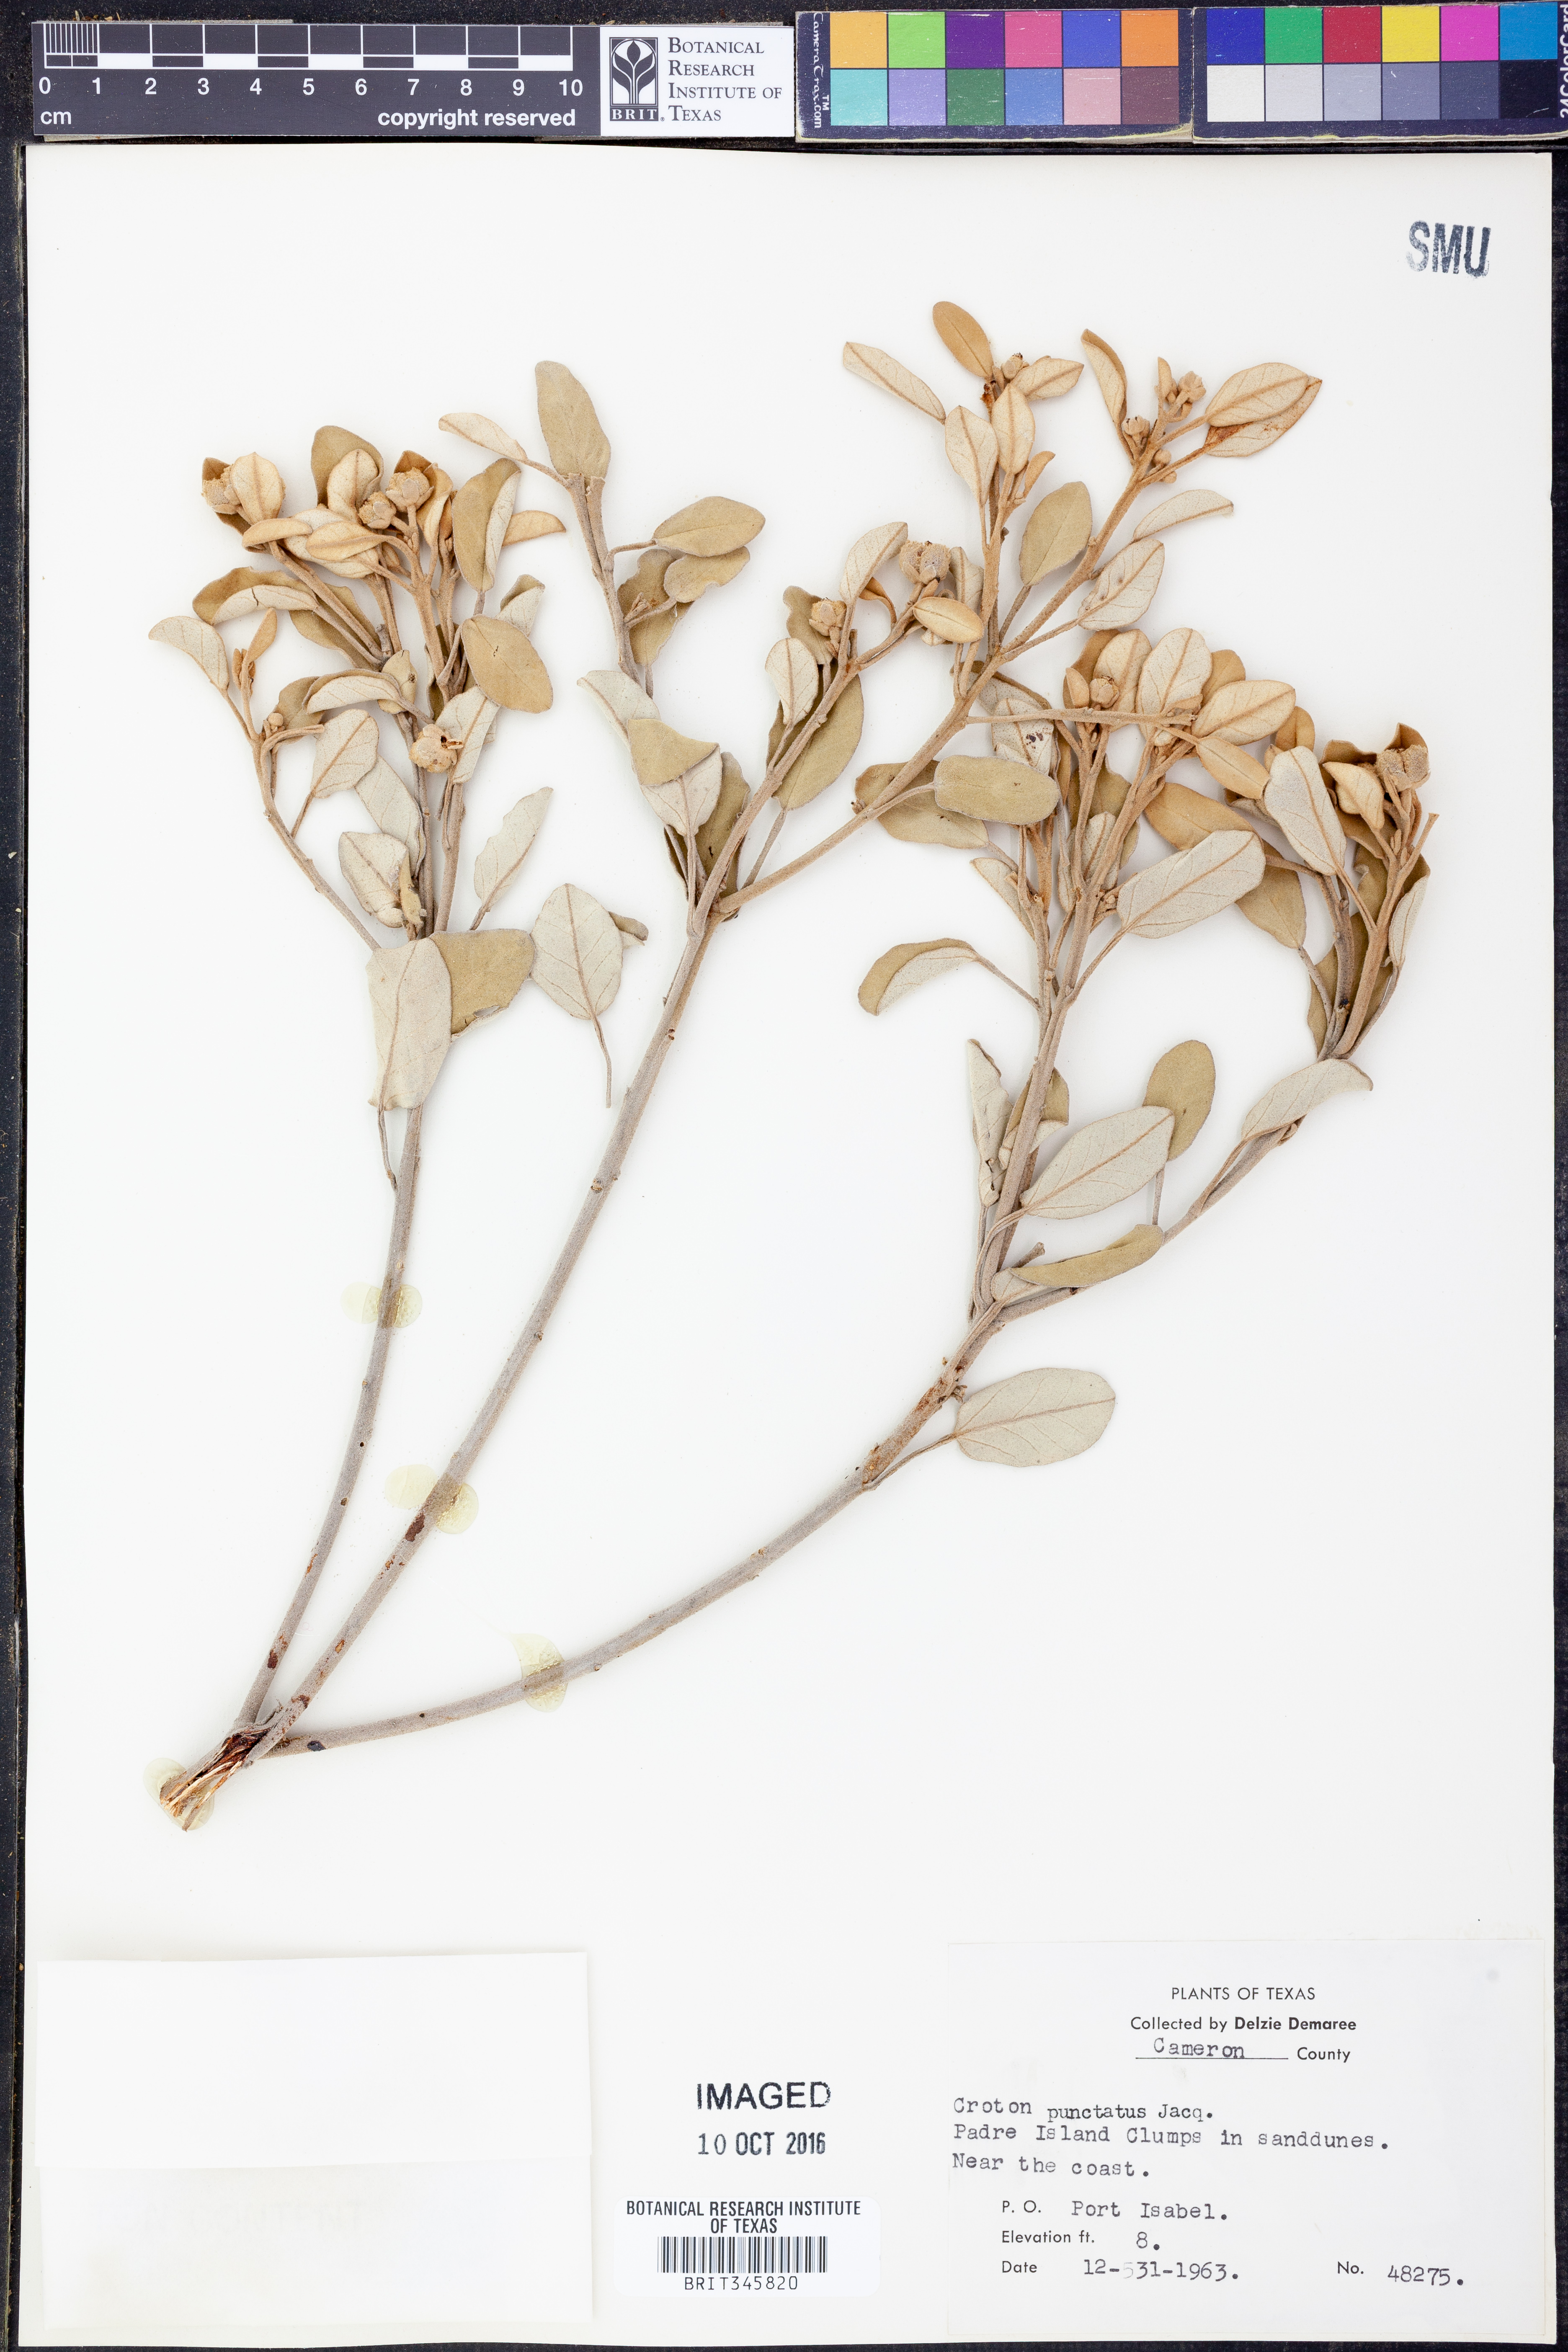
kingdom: Plantae
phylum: Tracheophyta
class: Magnoliopsida
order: Malpighiales
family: Euphorbiaceae
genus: Croton
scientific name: Croton punctatus
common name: Beach-tea
